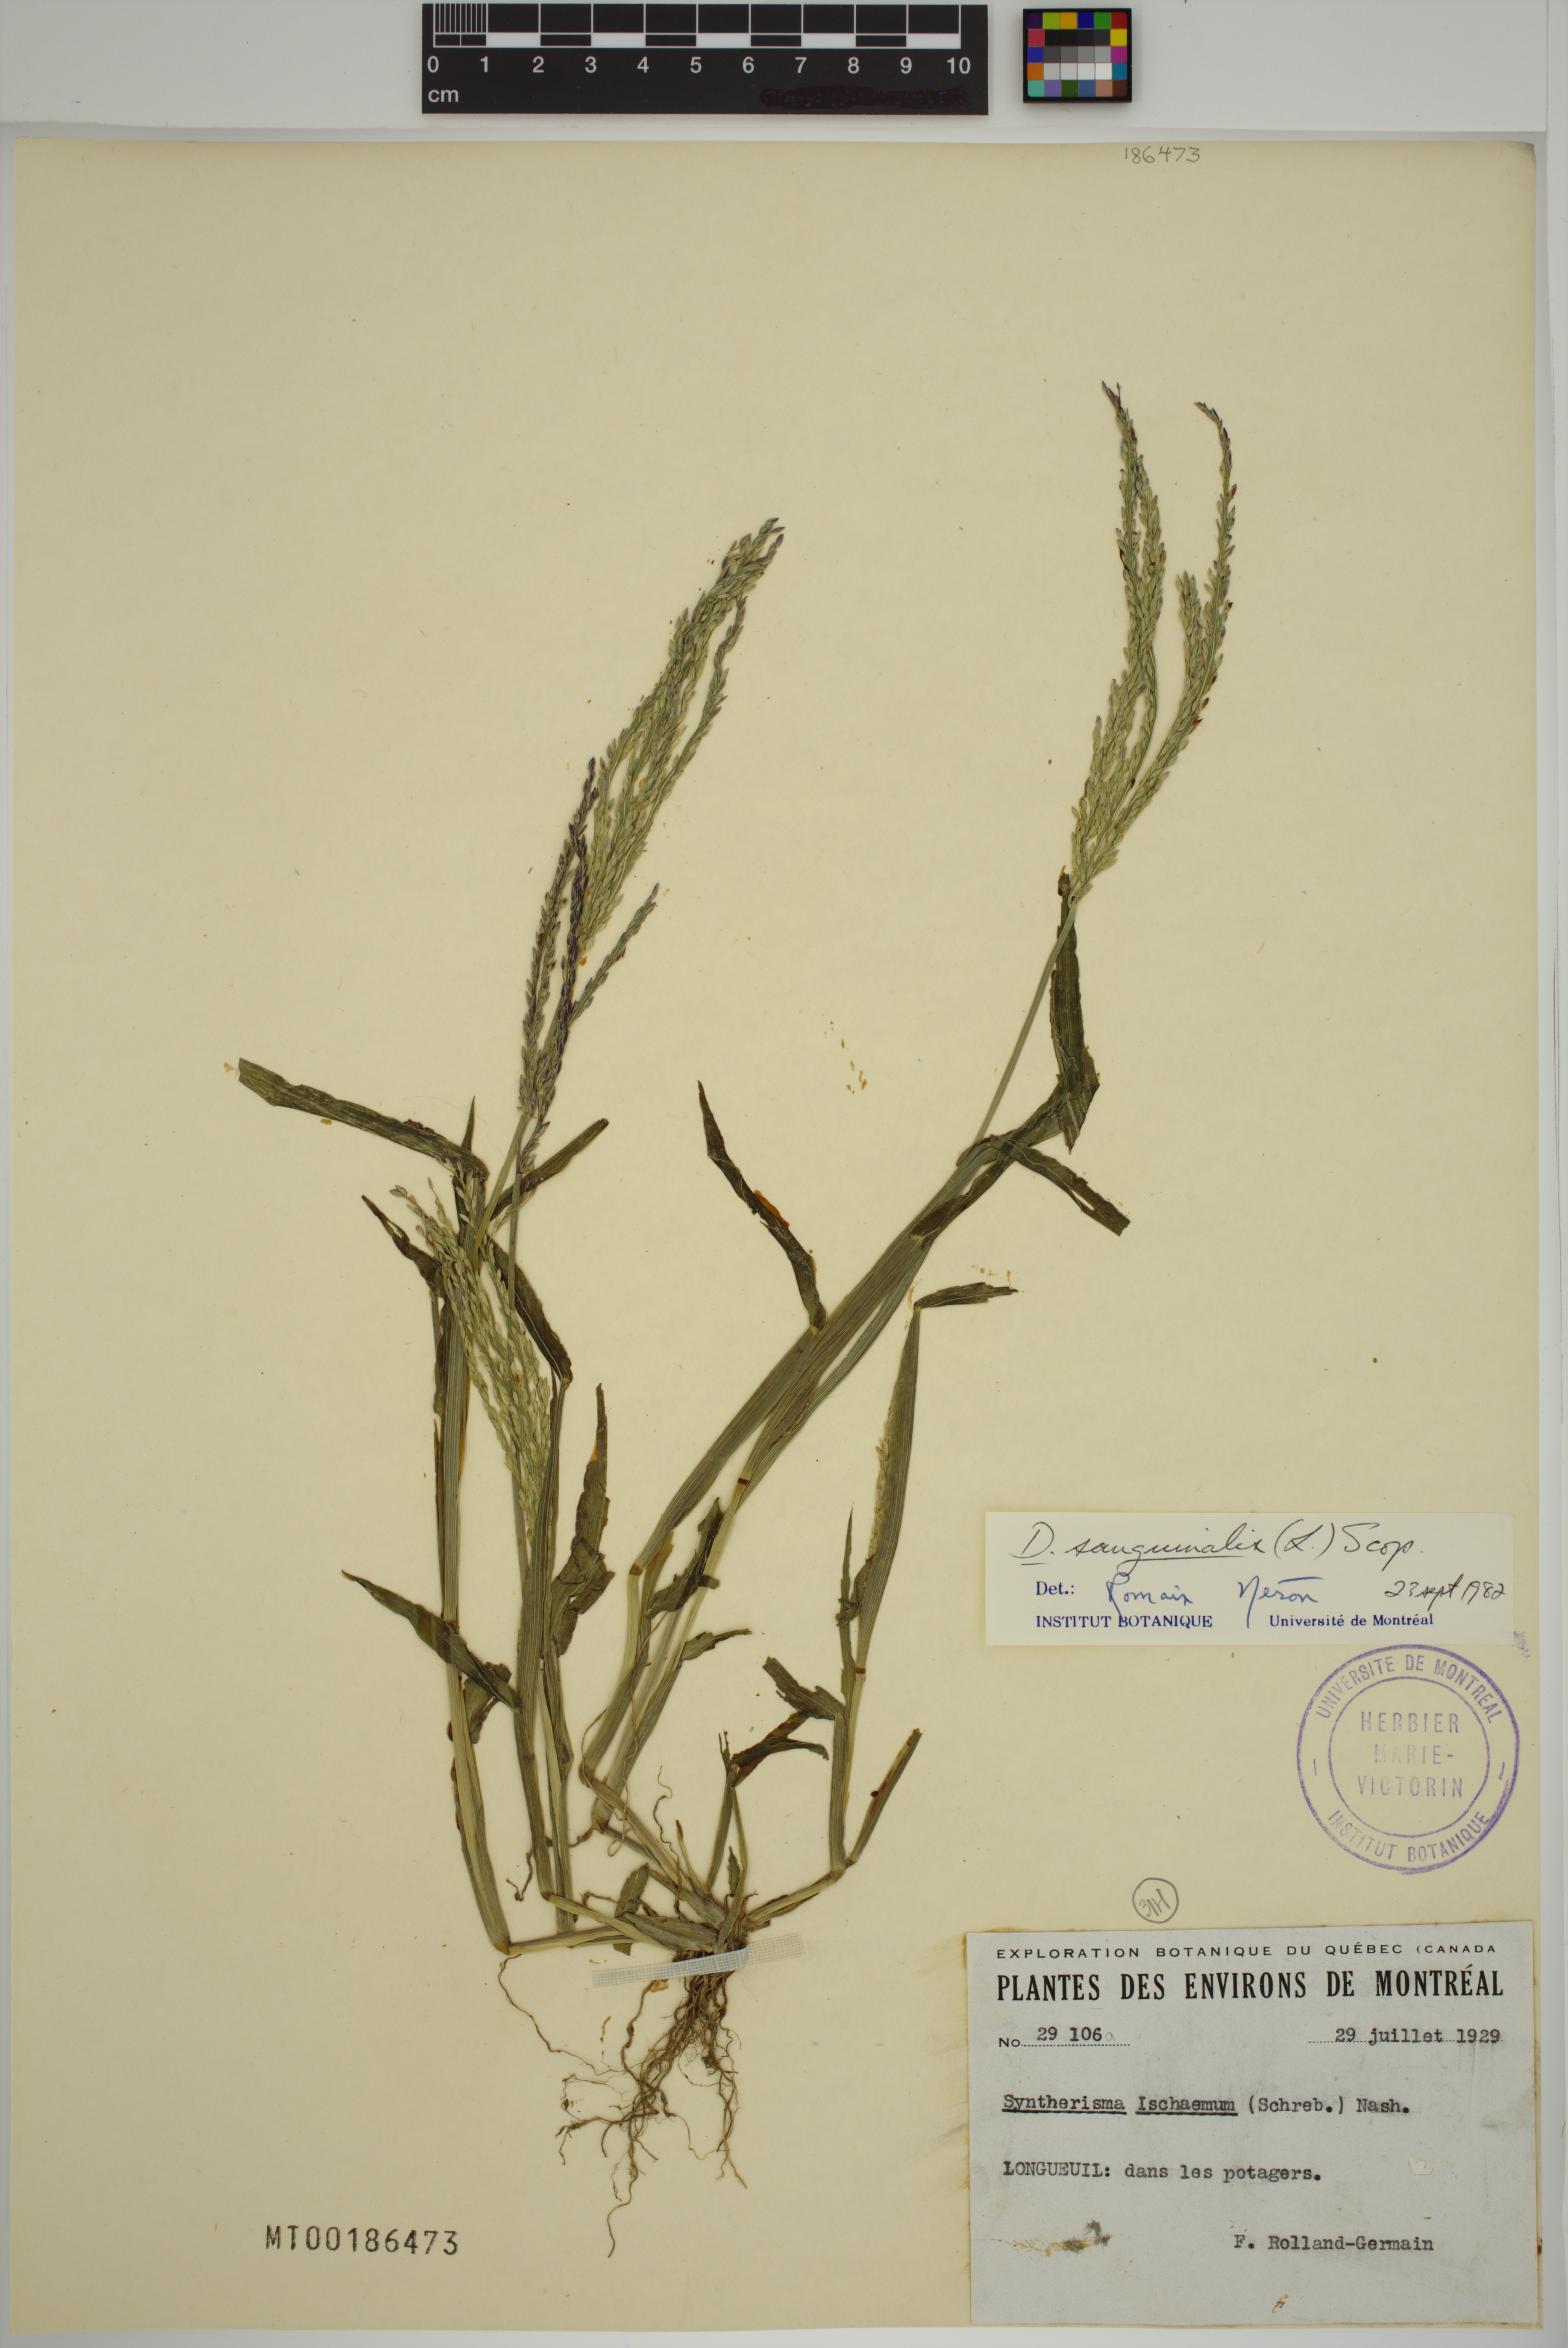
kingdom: Plantae
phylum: Tracheophyta
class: Liliopsida
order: Poales
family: Poaceae
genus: Digitaria
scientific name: Digitaria sanguinalis
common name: Hairy crabgrass
